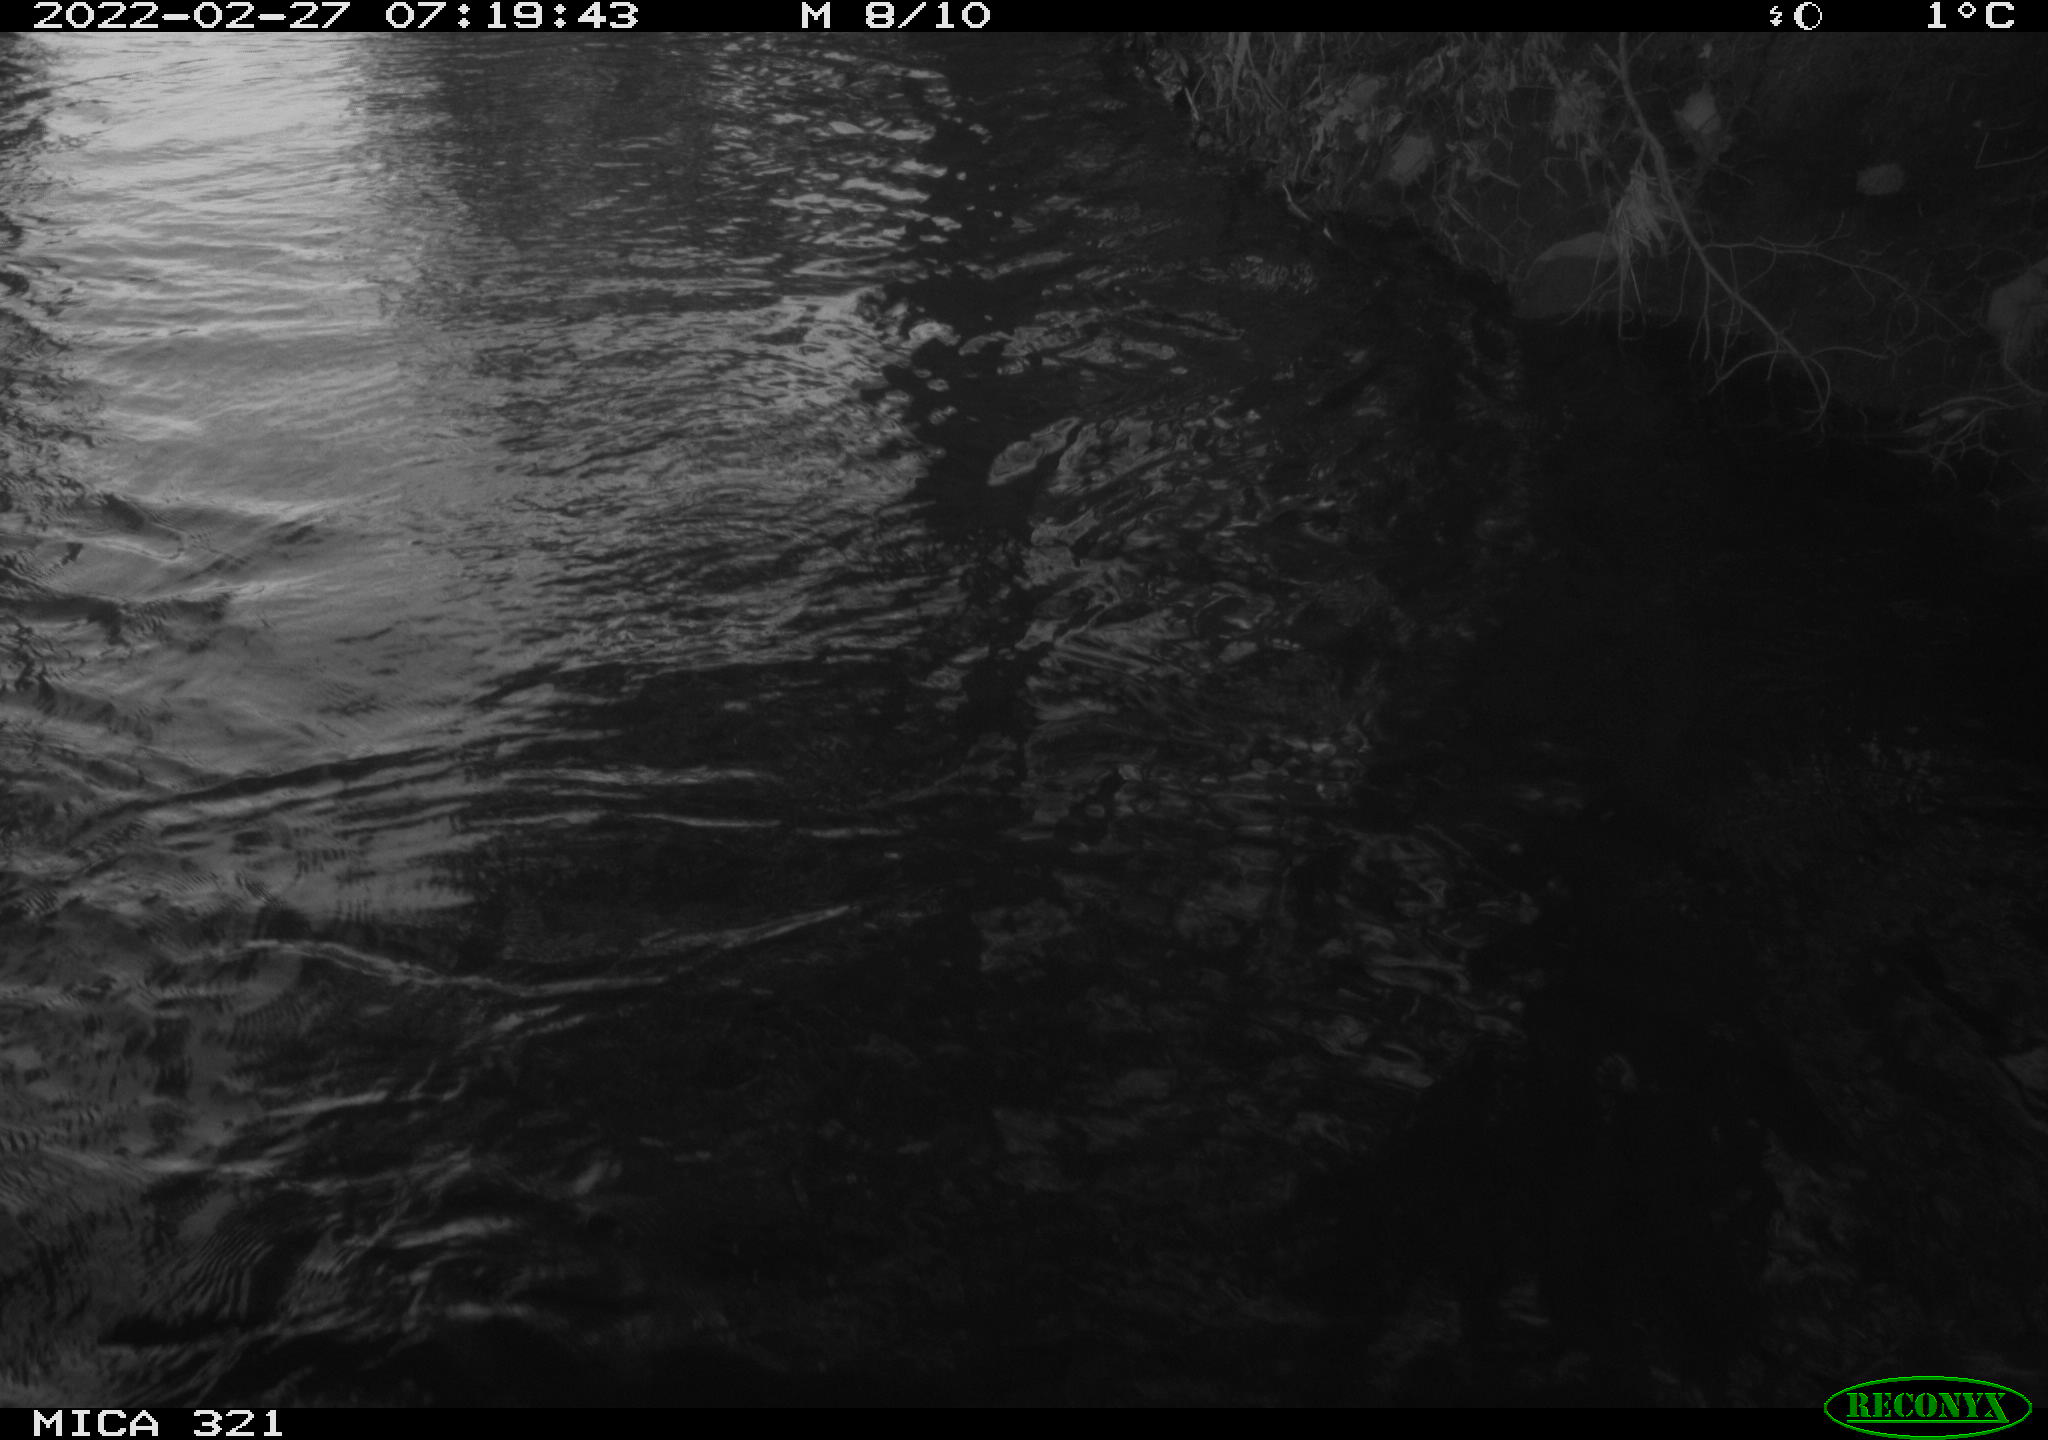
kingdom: Animalia
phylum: Chordata
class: Aves
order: Suliformes
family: Phalacrocoracidae
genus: Phalacrocorax
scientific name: Phalacrocorax carbo
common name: Great cormorant
